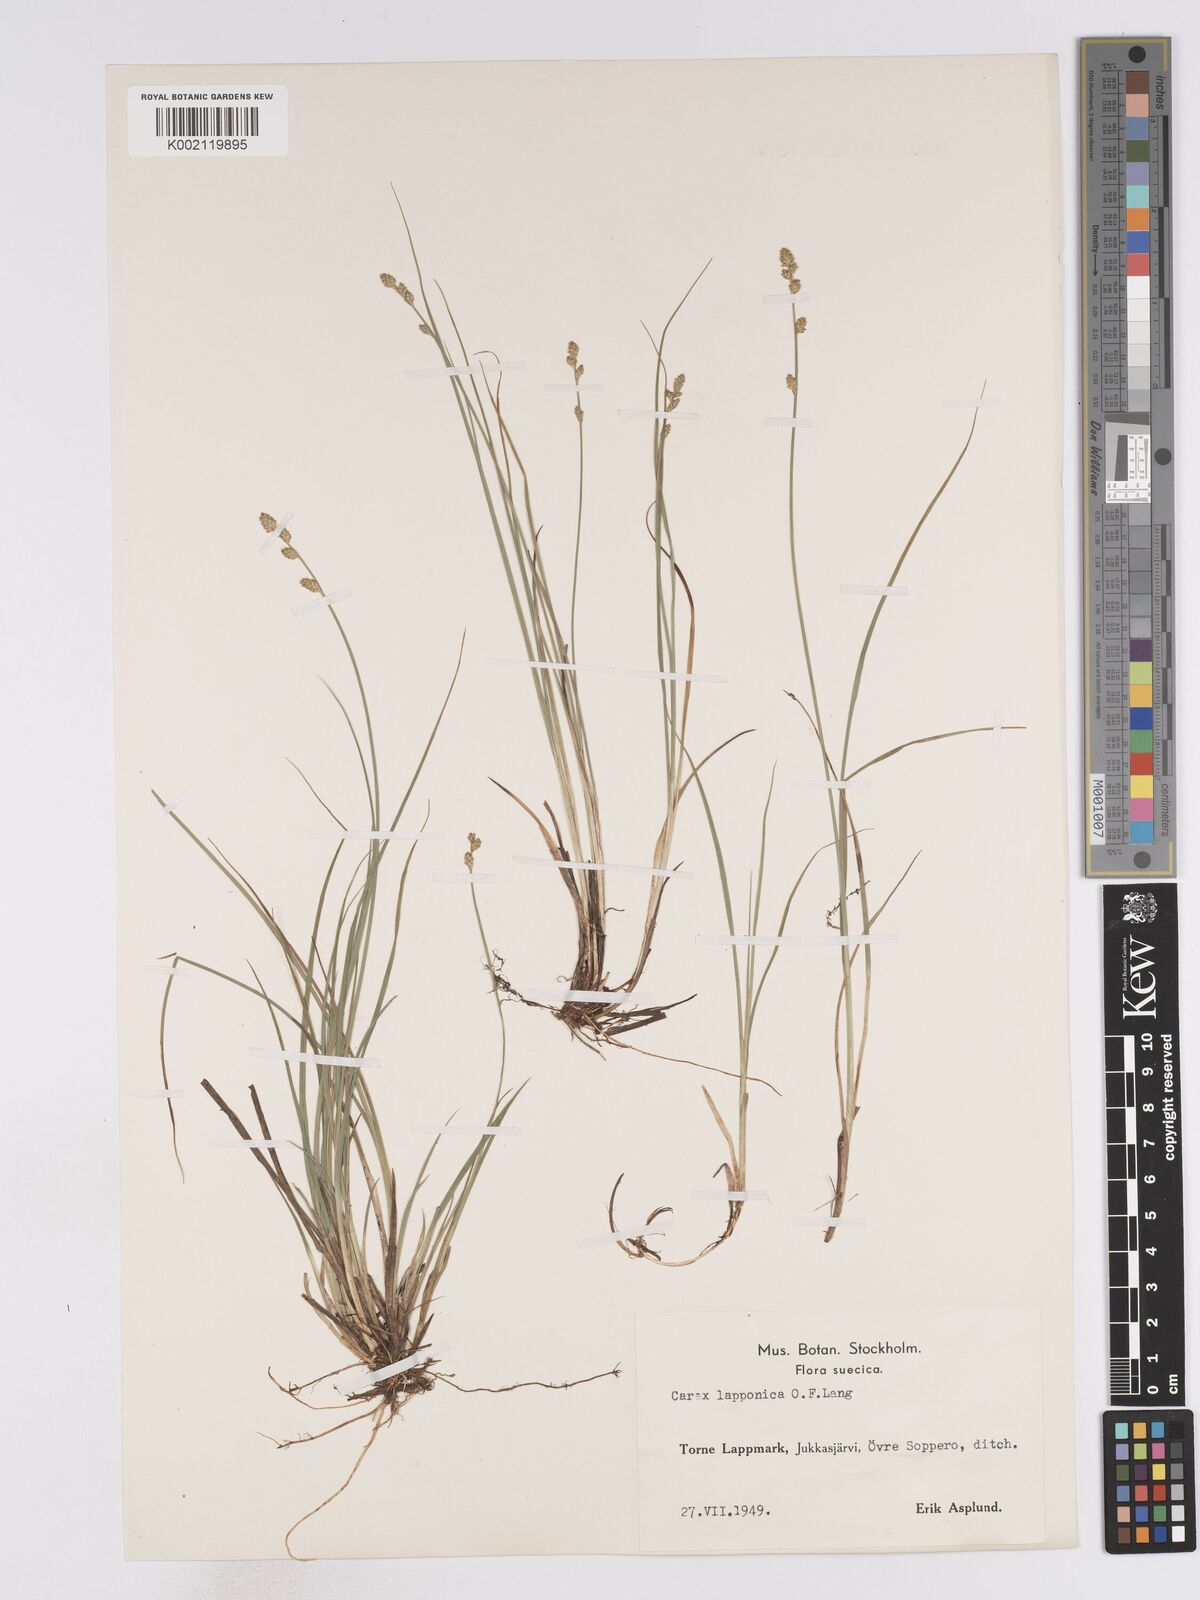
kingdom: Plantae
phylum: Tracheophyta
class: Liliopsida
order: Poales
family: Cyperaceae
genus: Carex
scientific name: Carex lapponica
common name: Lapland sedge
